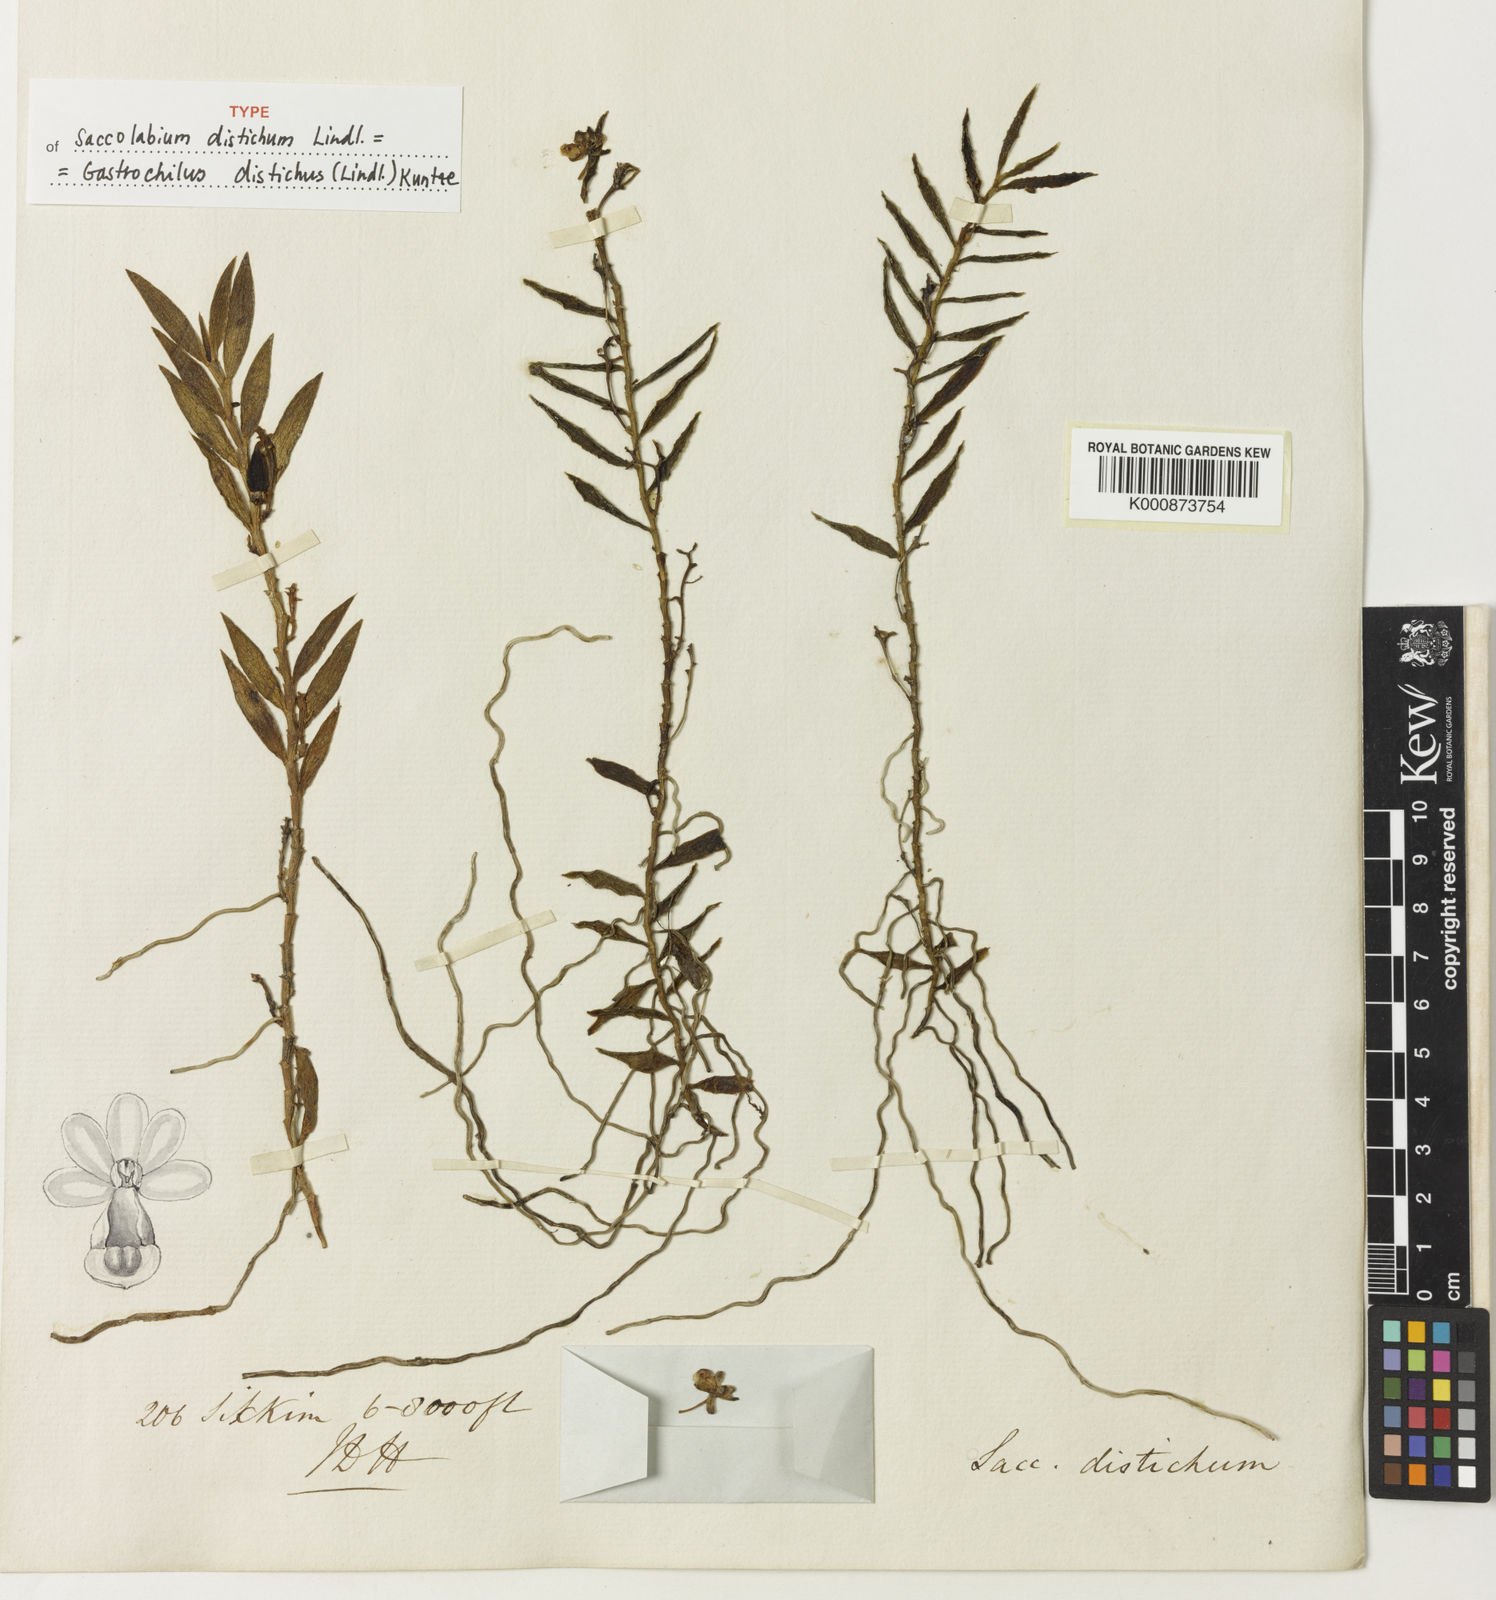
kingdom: Plantae
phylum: Tracheophyta
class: Liliopsida
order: Asparagales
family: Orchidaceae
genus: Gastrochilus
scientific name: Gastrochilus distichus
